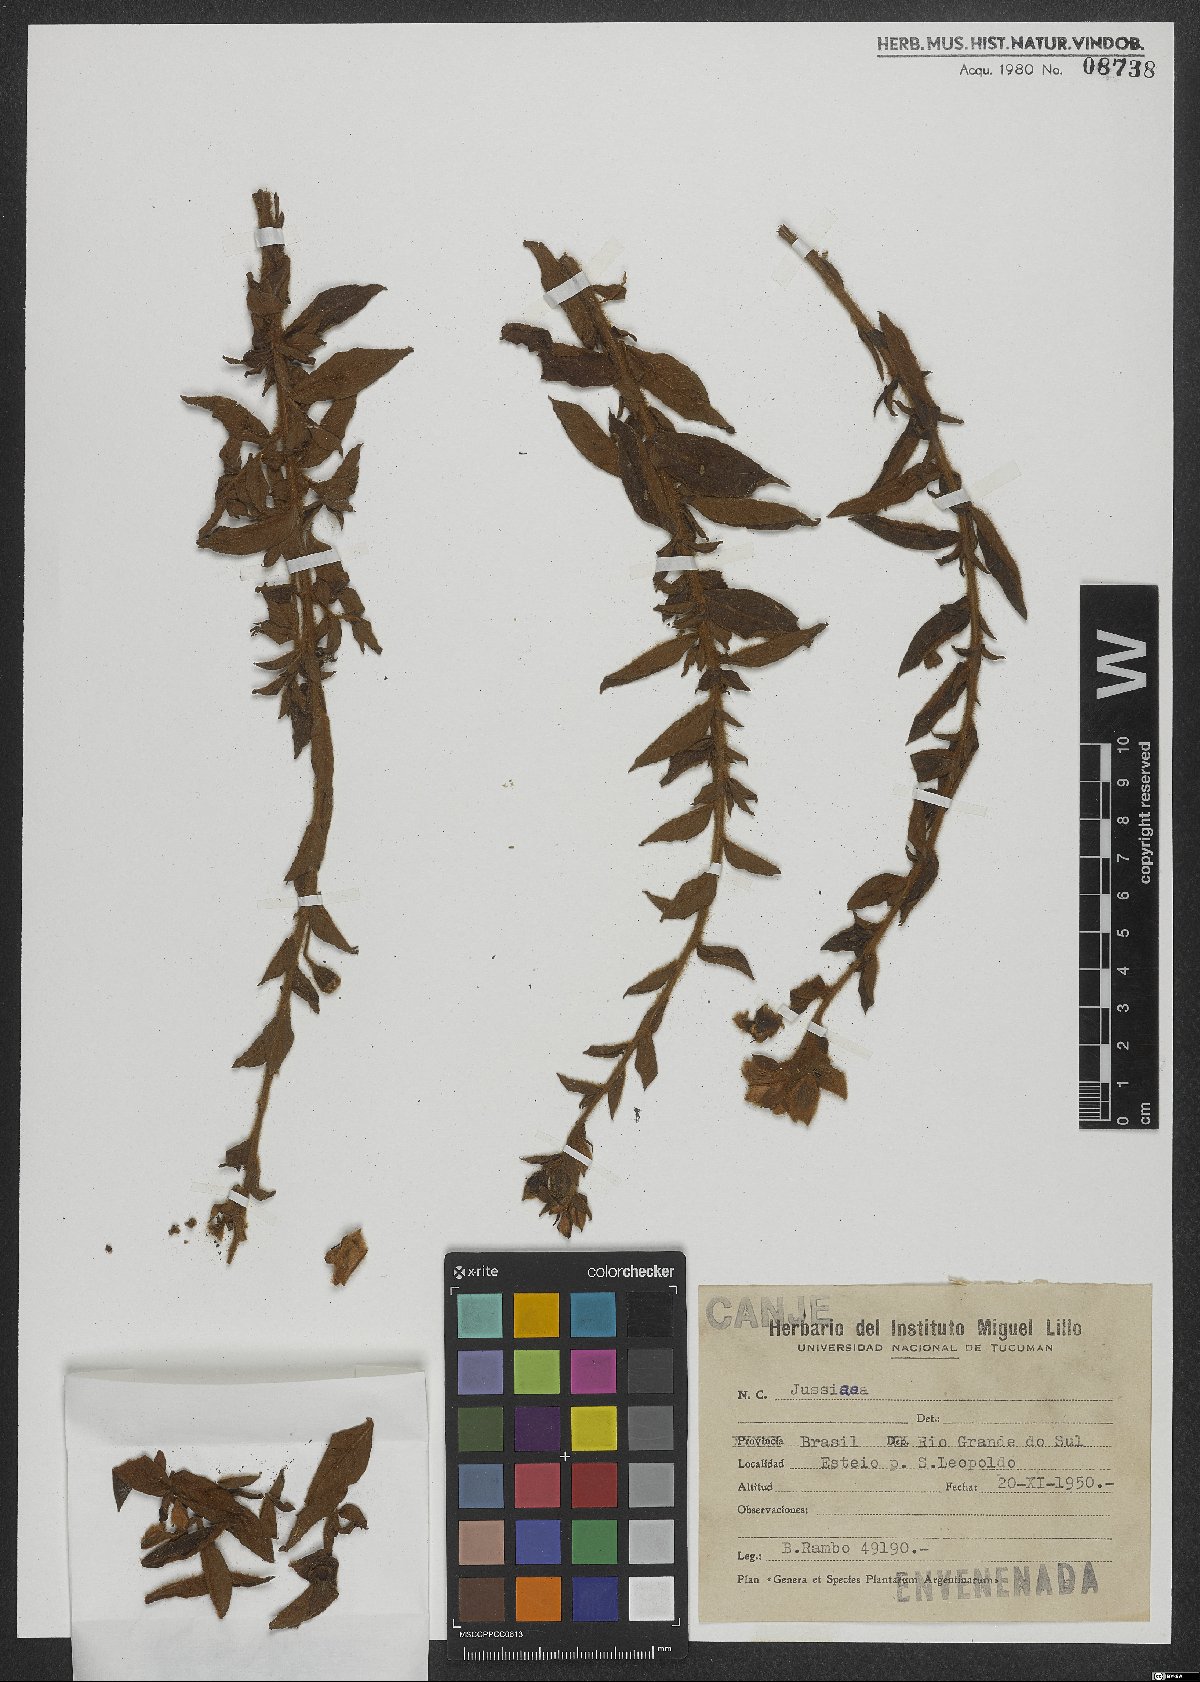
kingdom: Plantae
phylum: Tracheophyta
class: Magnoliopsida
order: Myrtales
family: Onagraceae
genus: Ludwigia
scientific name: Ludwigia
